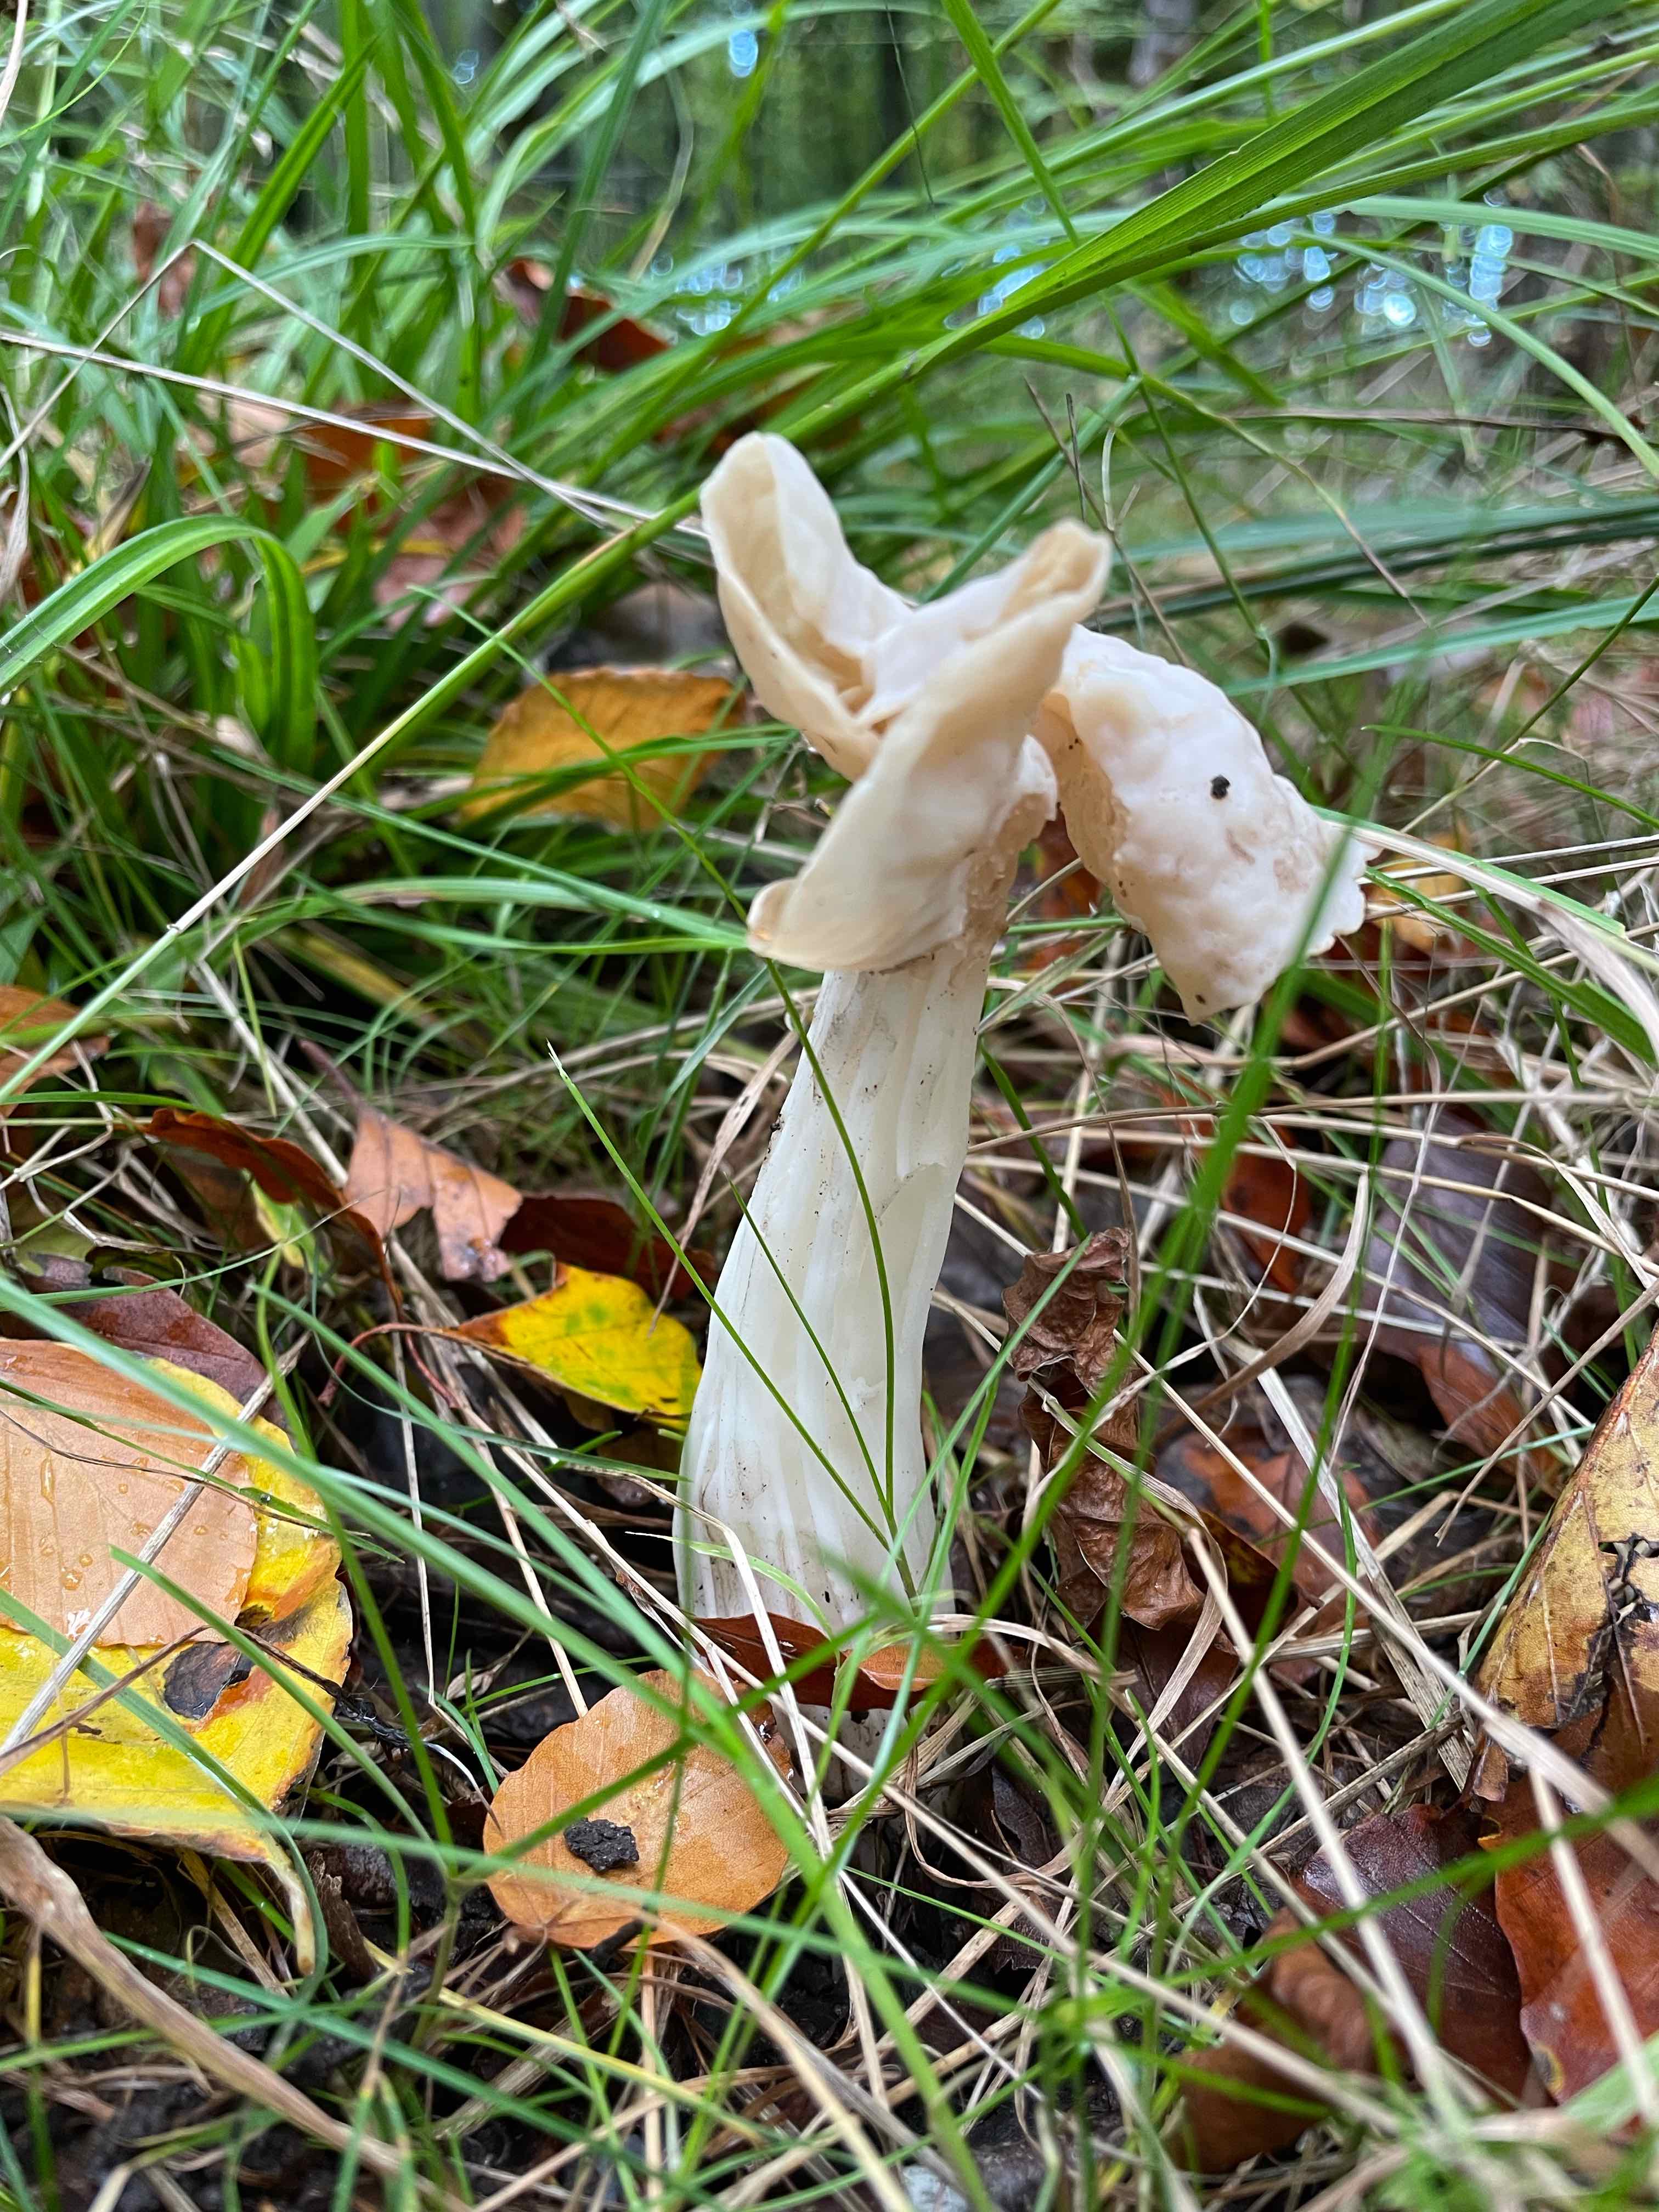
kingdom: Fungi
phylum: Ascomycota
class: Pezizomycetes
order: Pezizales
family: Helvellaceae
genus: Helvella
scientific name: Helvella crispa
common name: kruset foldhat
